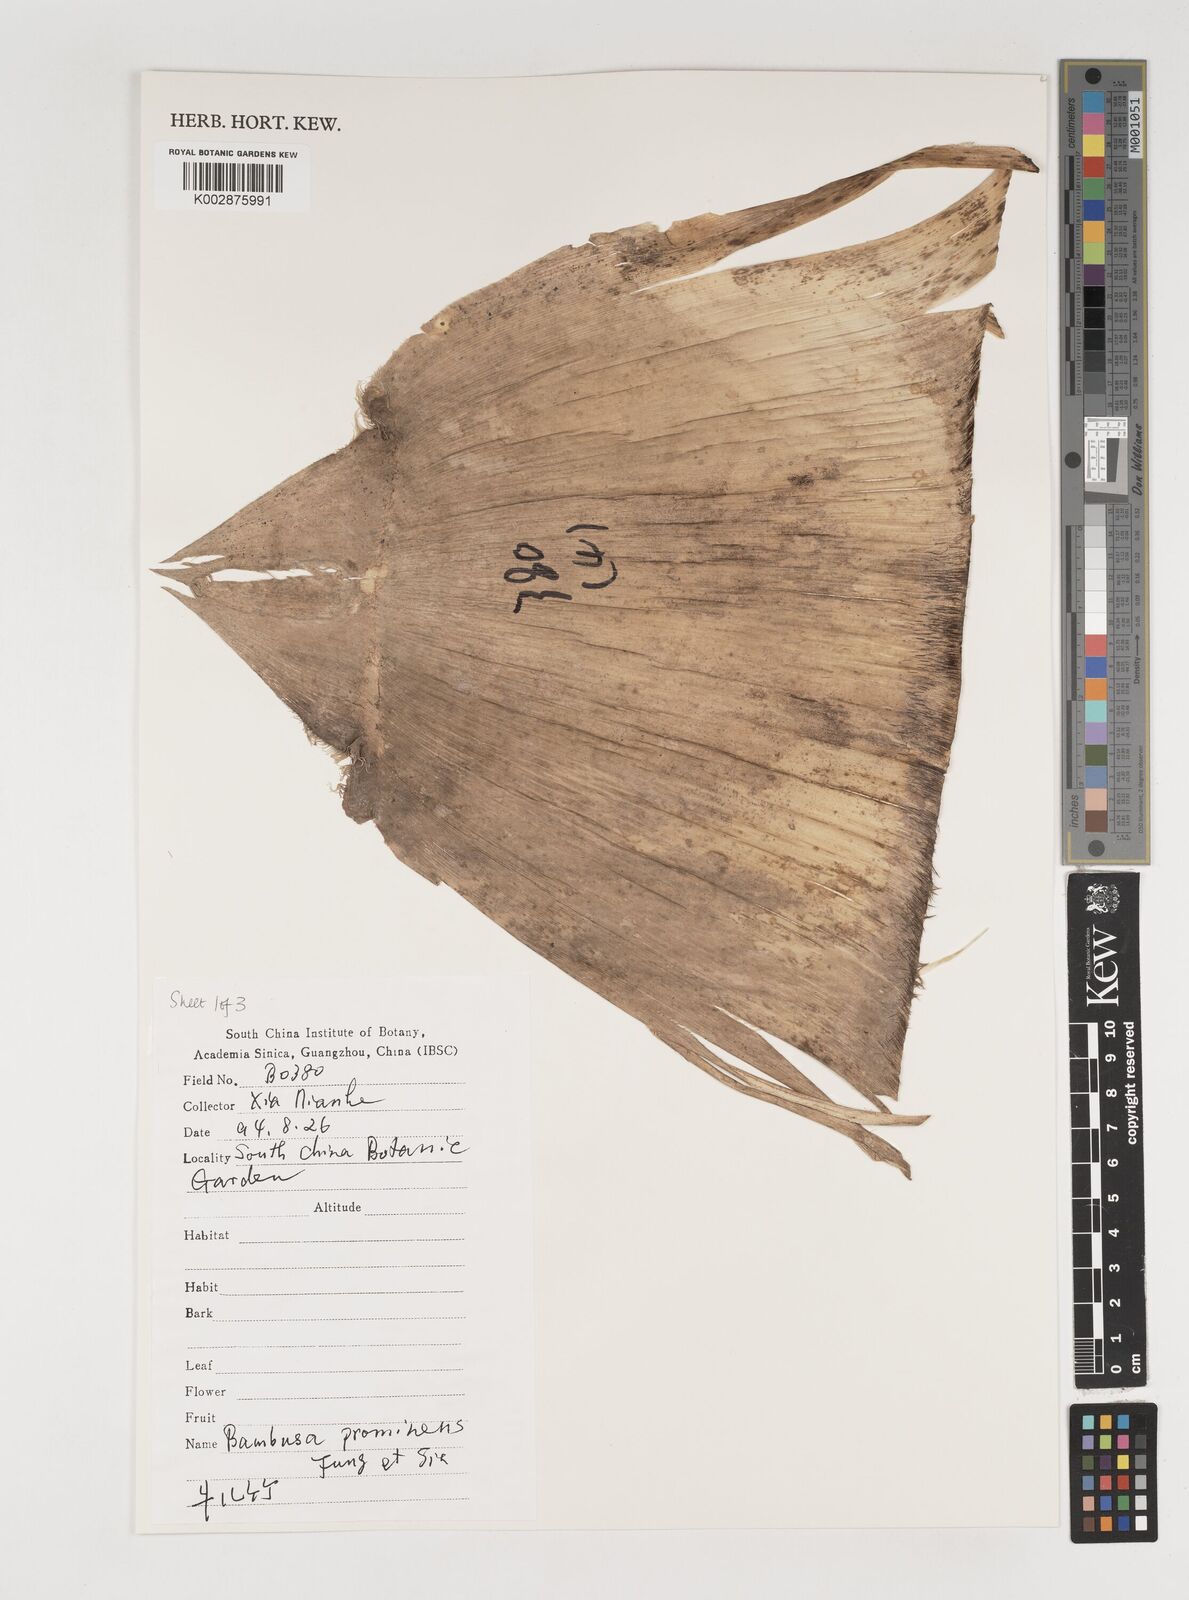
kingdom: Plantae
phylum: Tracheophyta
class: Liliopsida
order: Poales
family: Poaceae
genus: Bambusa
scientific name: Bambusa prominens
